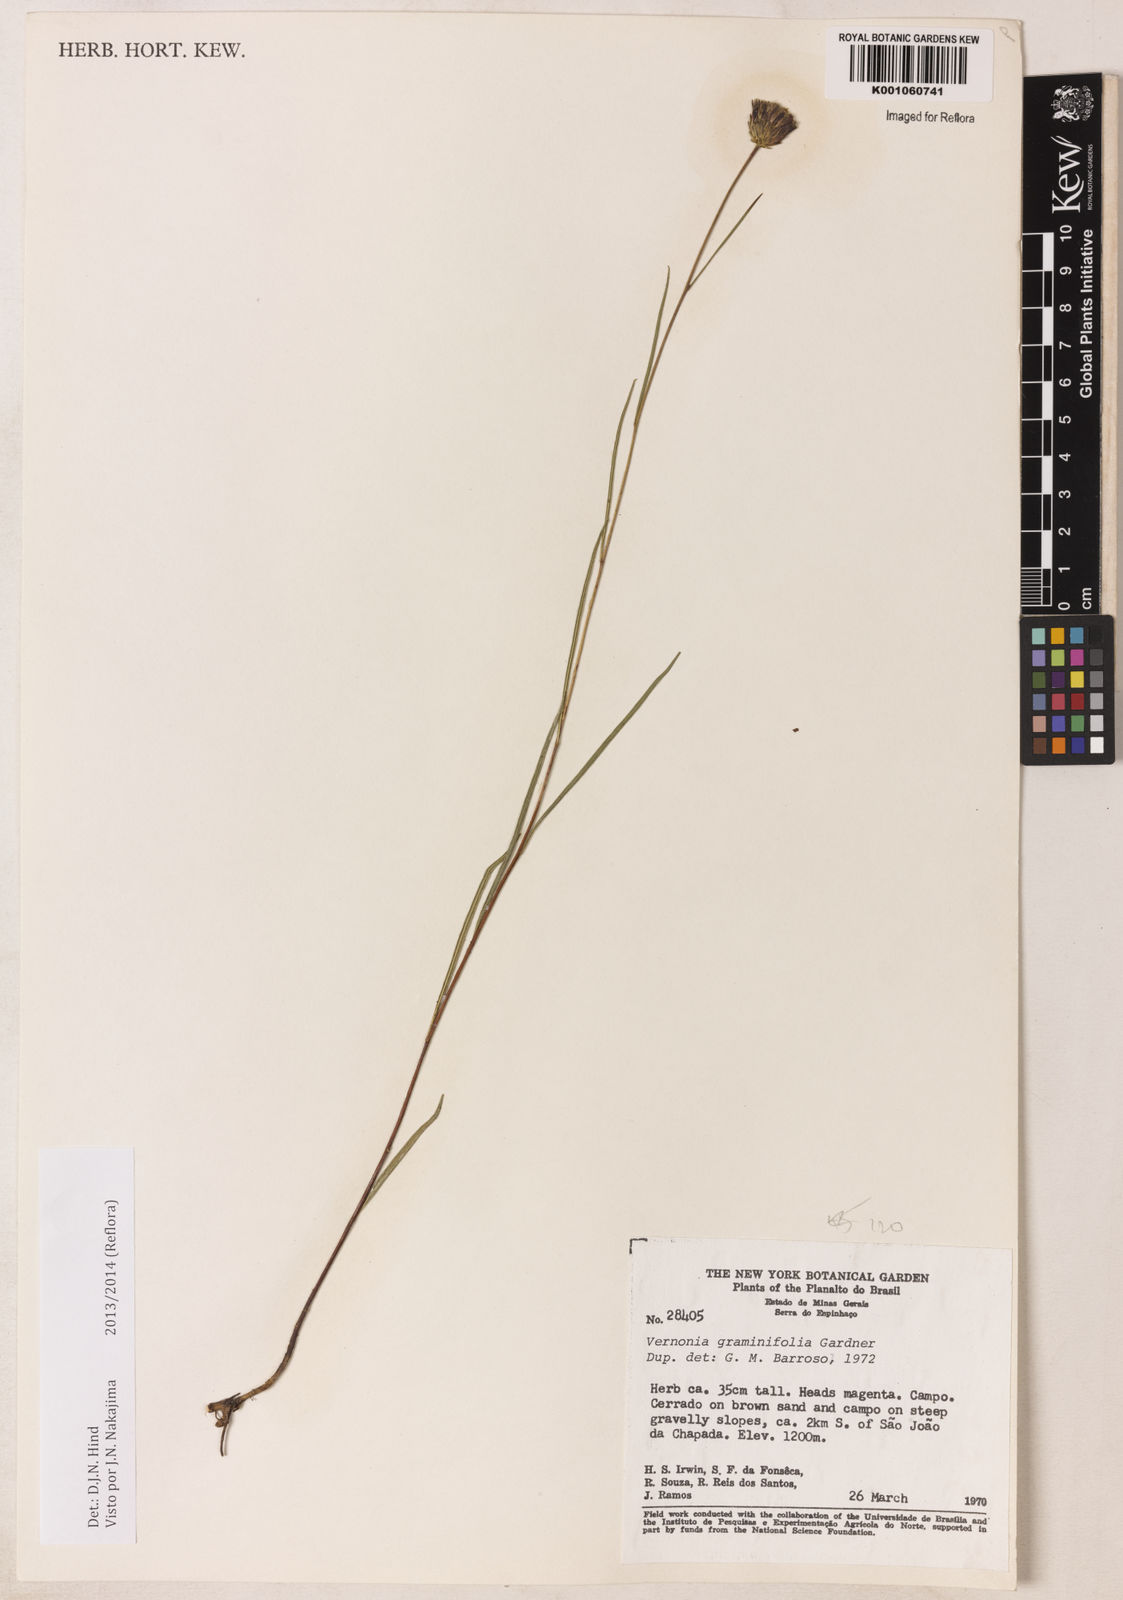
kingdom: Plantae
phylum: Tracheophyta
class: Magnoliopsida
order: Asterales
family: Asteraceae
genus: Lessingianthus
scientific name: Lessingianthus graminifolius
